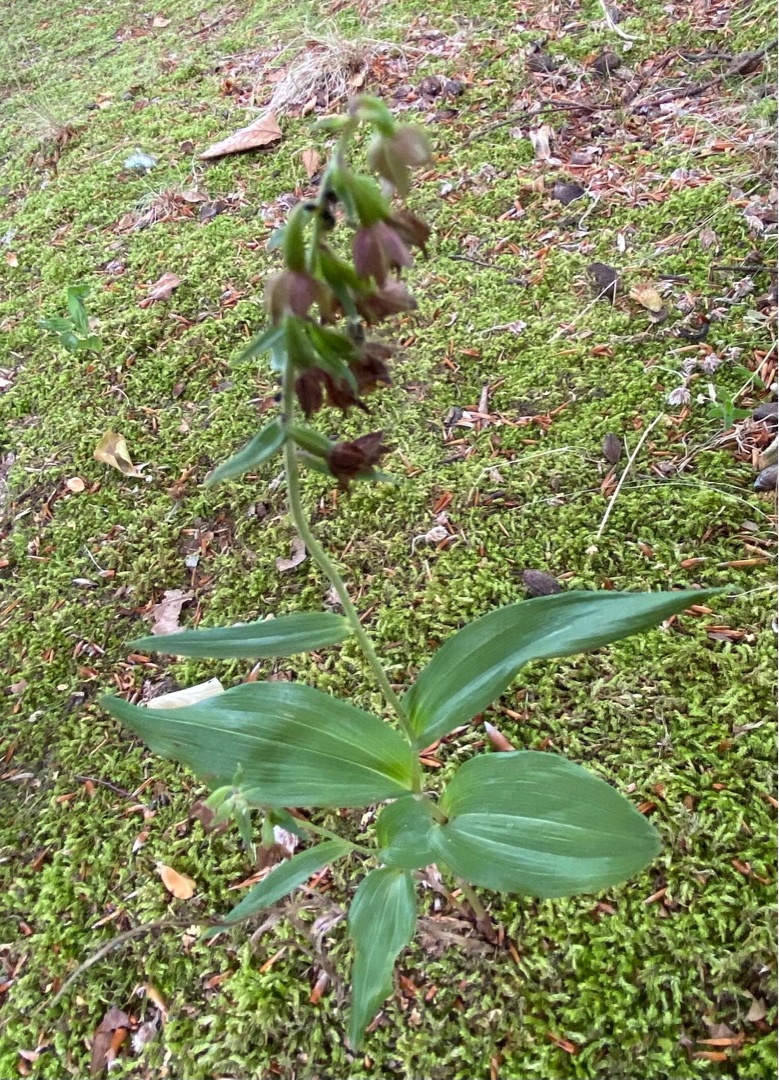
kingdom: Plantae
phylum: Tracheophyta
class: Liliopsida
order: Asparagales
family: Orchidaceae
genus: Epipactis
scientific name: Epipactis helleborine
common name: Skov-hullæbe
